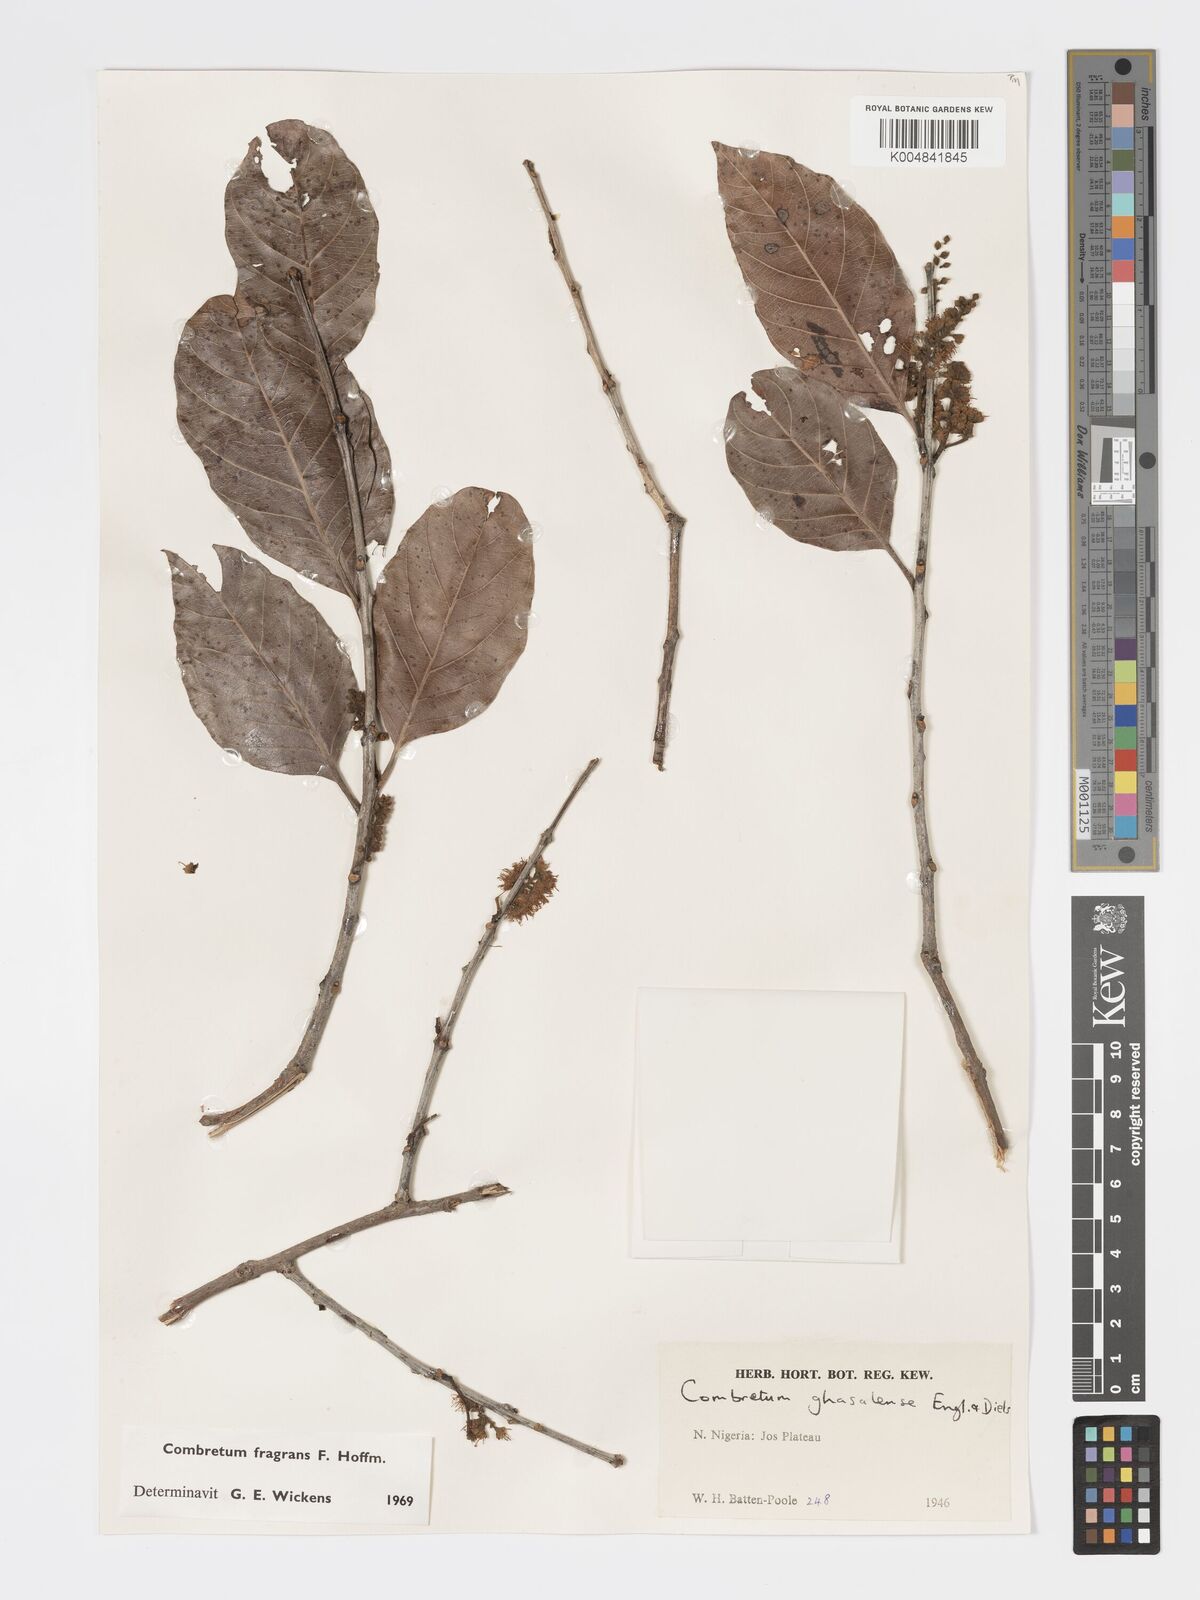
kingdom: Plantae
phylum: Tracheophyta
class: Magnoliopsida
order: Myrtales
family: Combretaceae
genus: Combretum
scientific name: Combretum adenogonium
